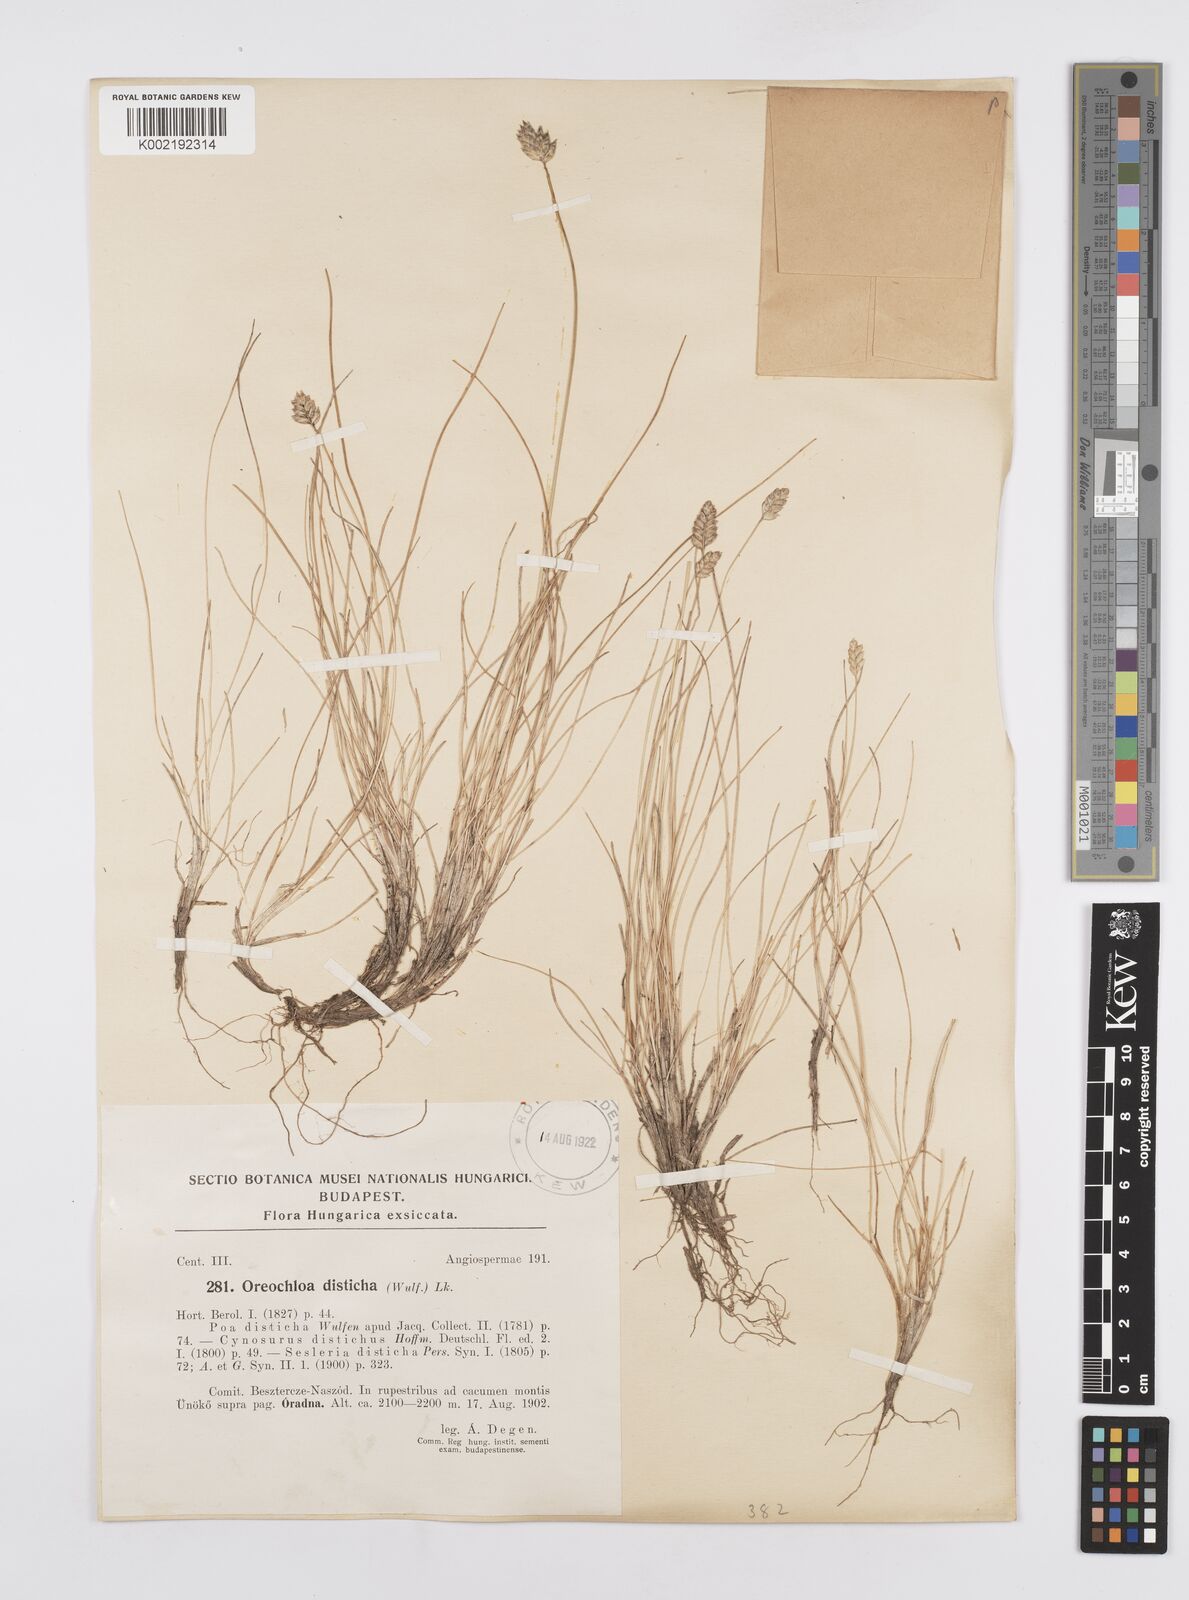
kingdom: Plantae
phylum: Tracheophyta
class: Liliopsida
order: Poales
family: Poaceae
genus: Oreochloa
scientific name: Oreochloa disticha
